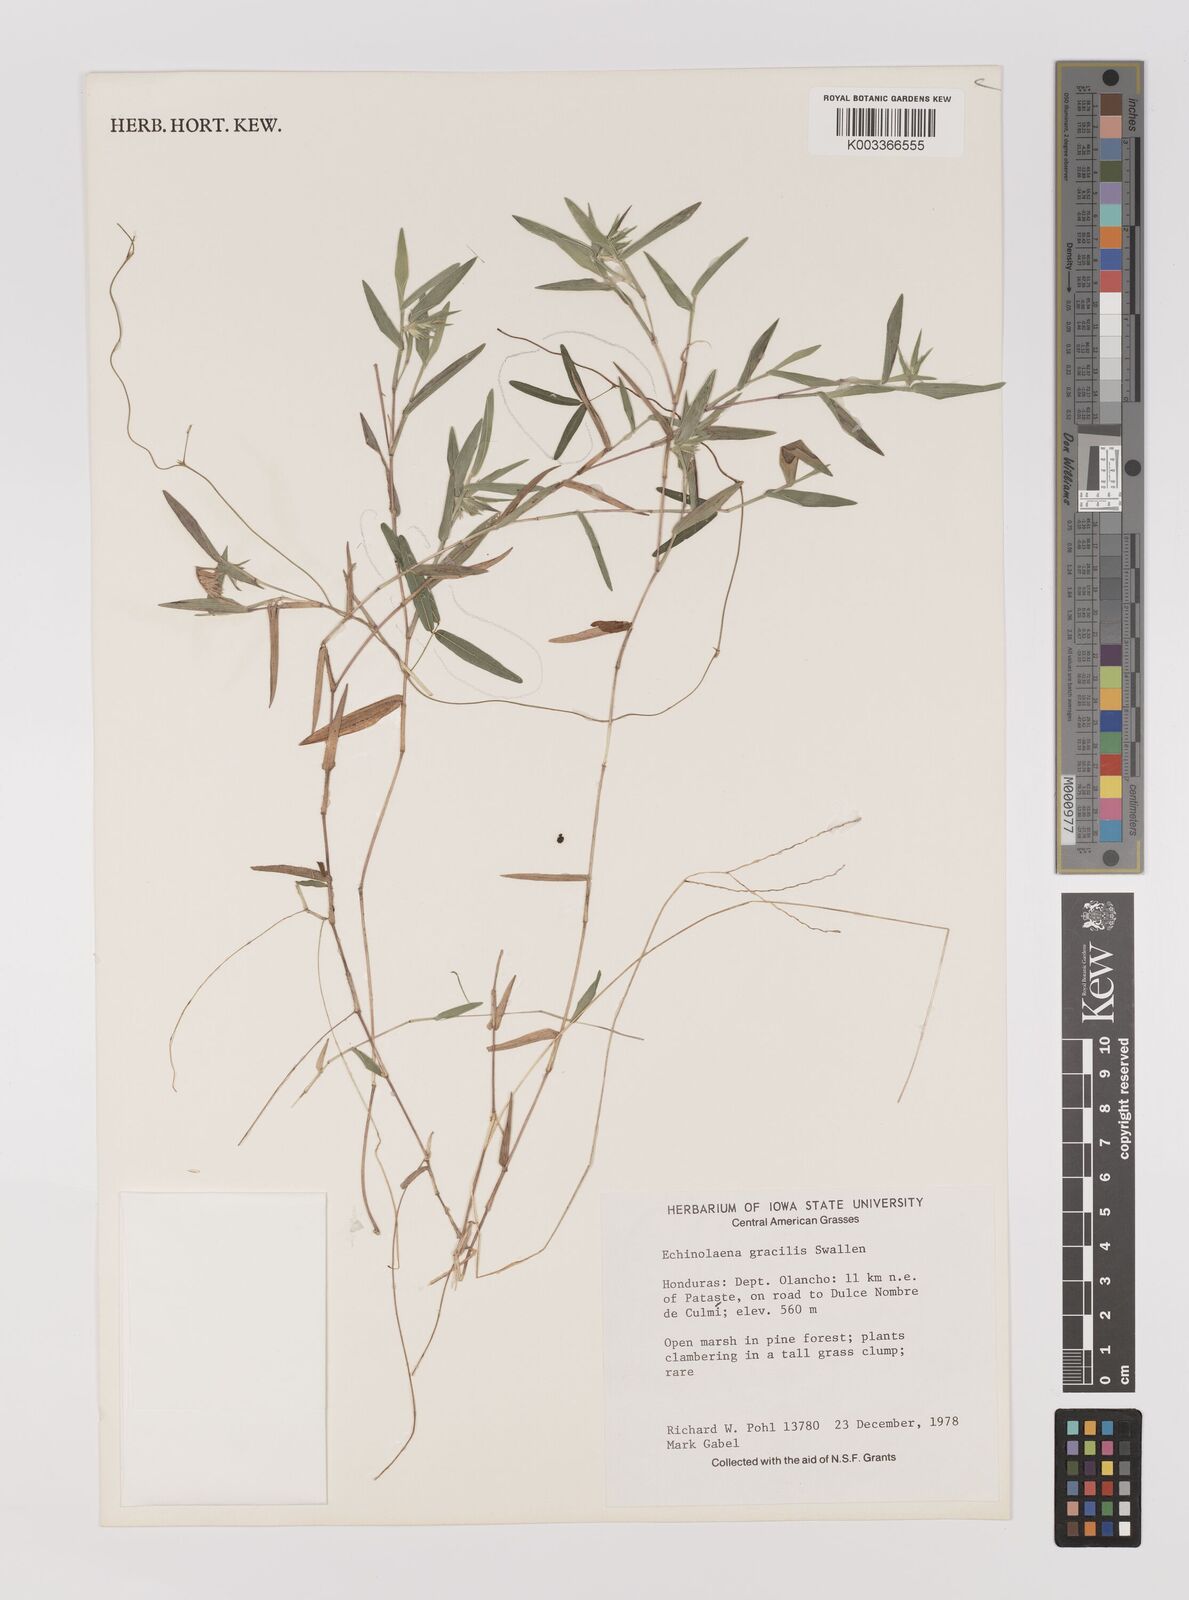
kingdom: Plantae
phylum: Tracheophyta
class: Liliopsida
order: Poales
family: Poaceae
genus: Echinolaena
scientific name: Echinolaena gracilis
